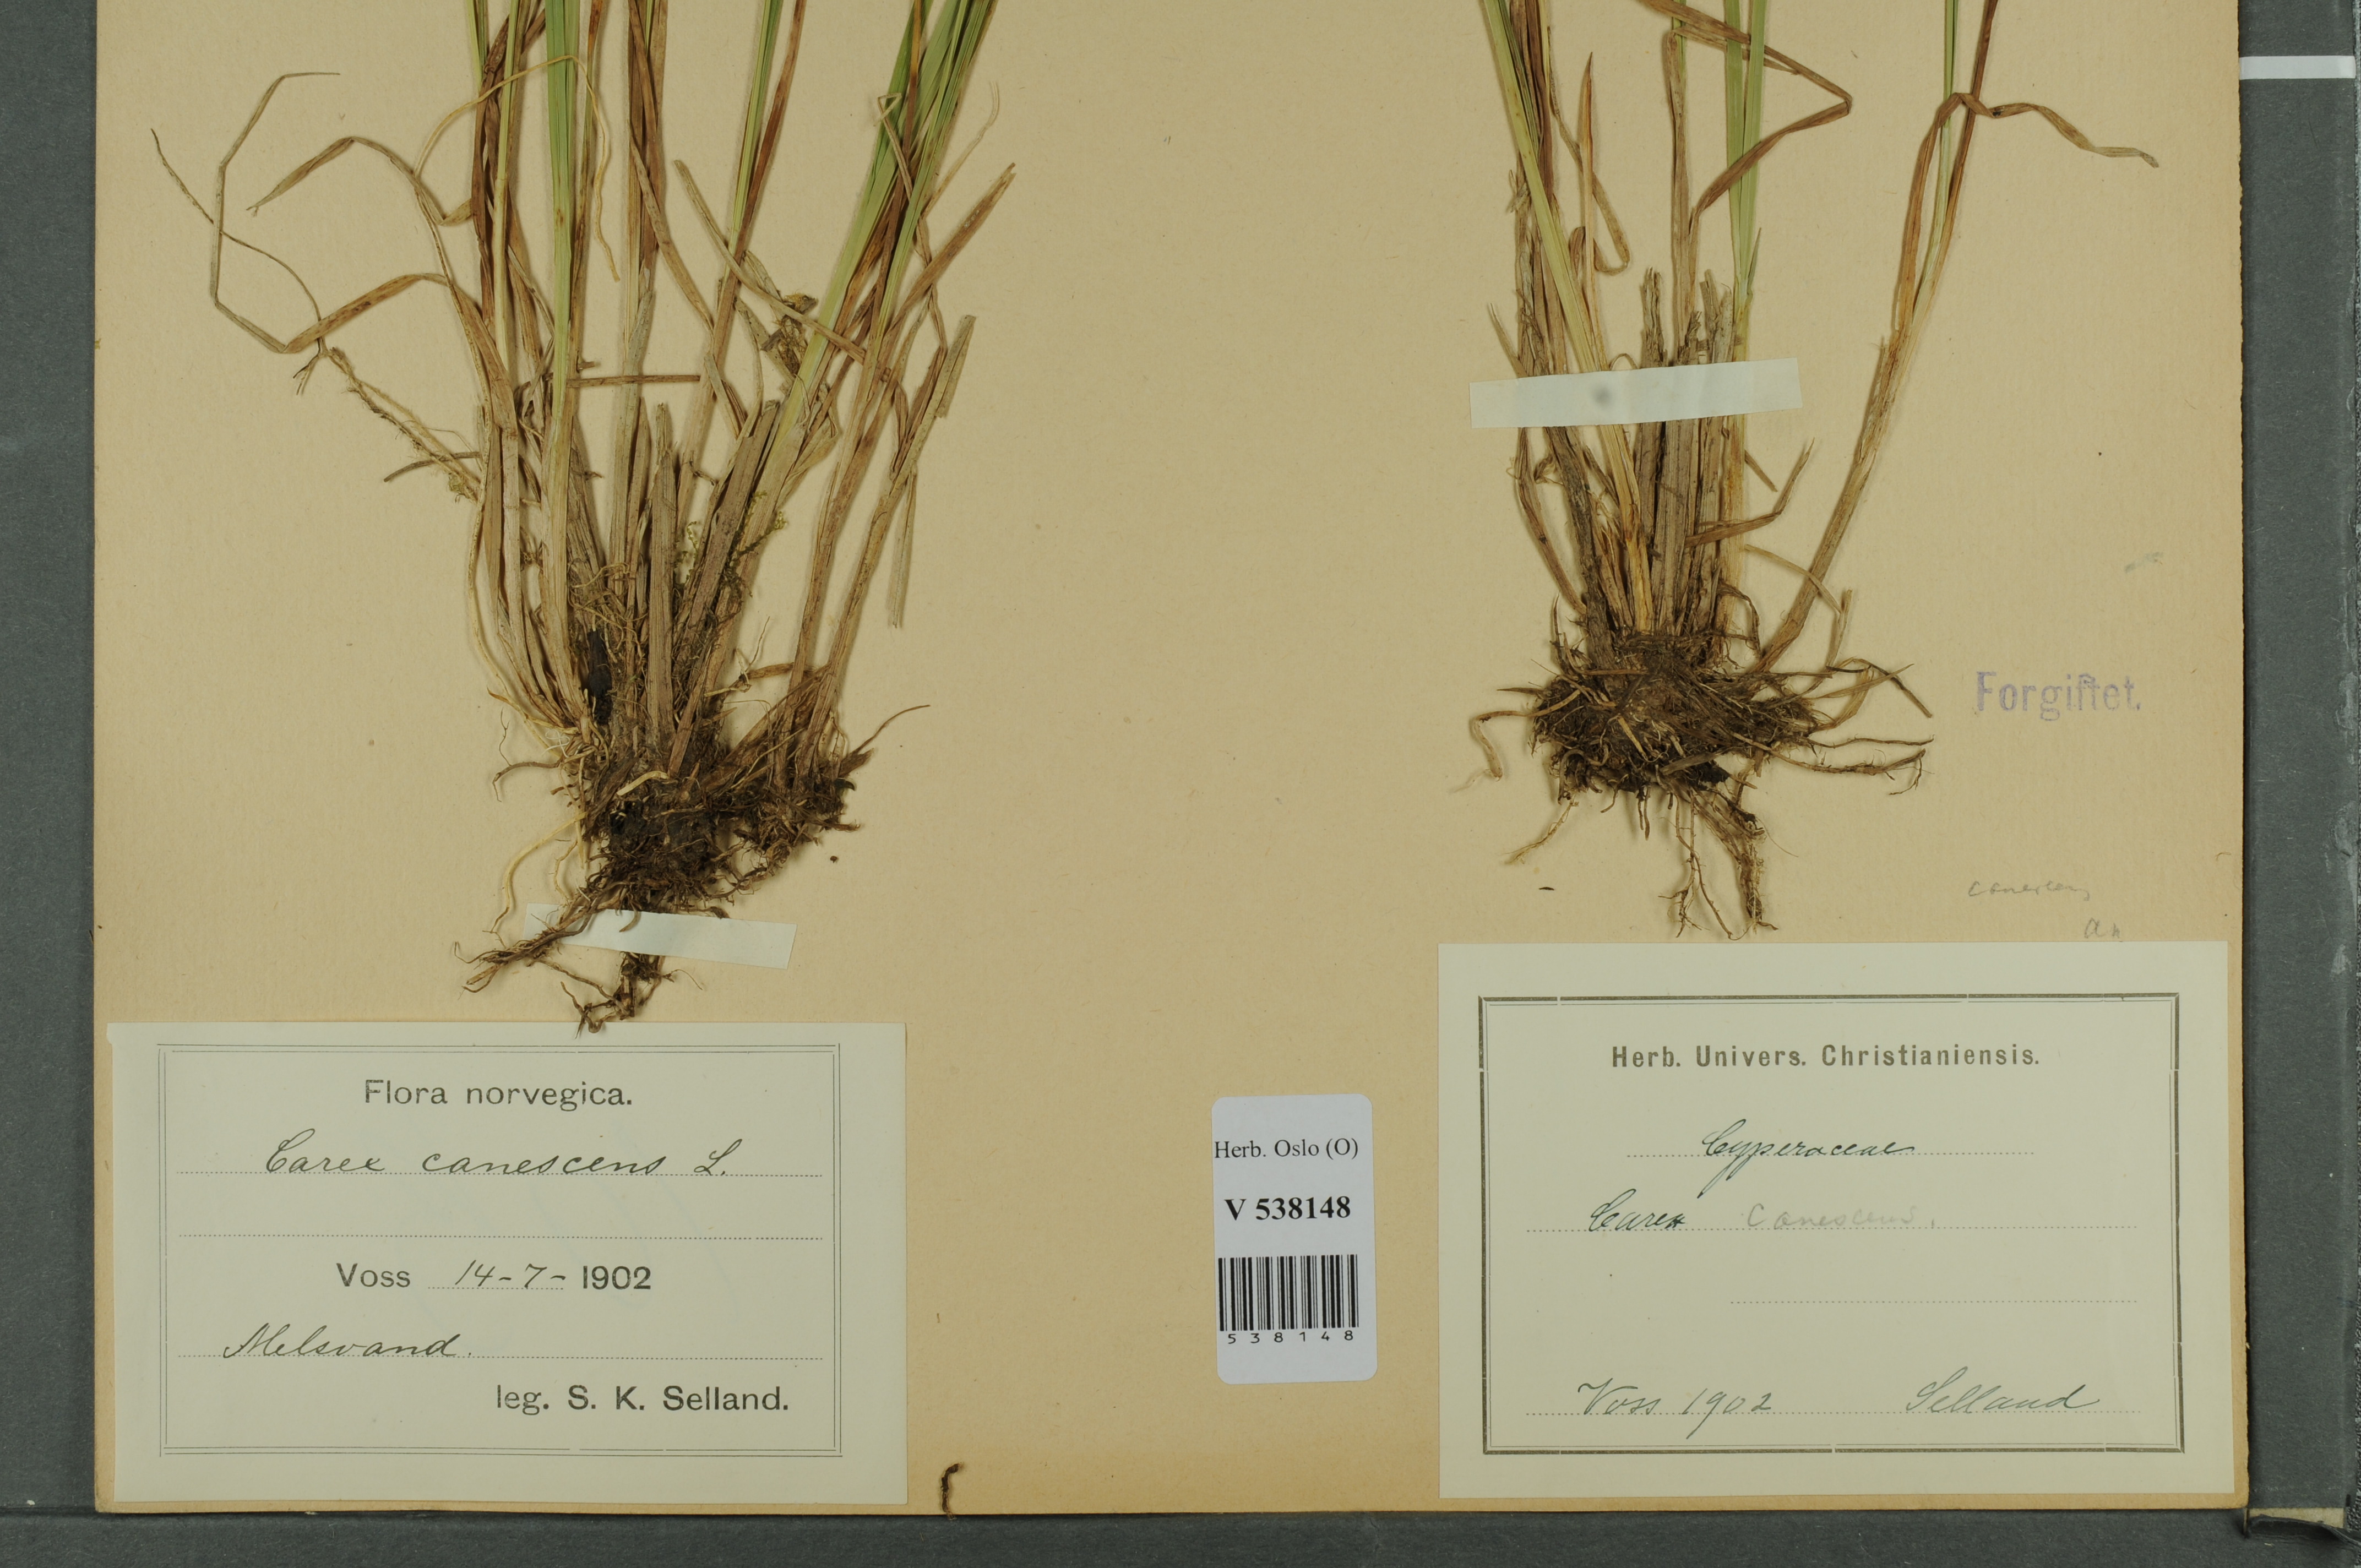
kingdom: Plantae
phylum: Tracheophyta
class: Liliopsida
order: Poales
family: Cyperaceae
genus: Carex
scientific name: Carex canescens
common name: White sedge
